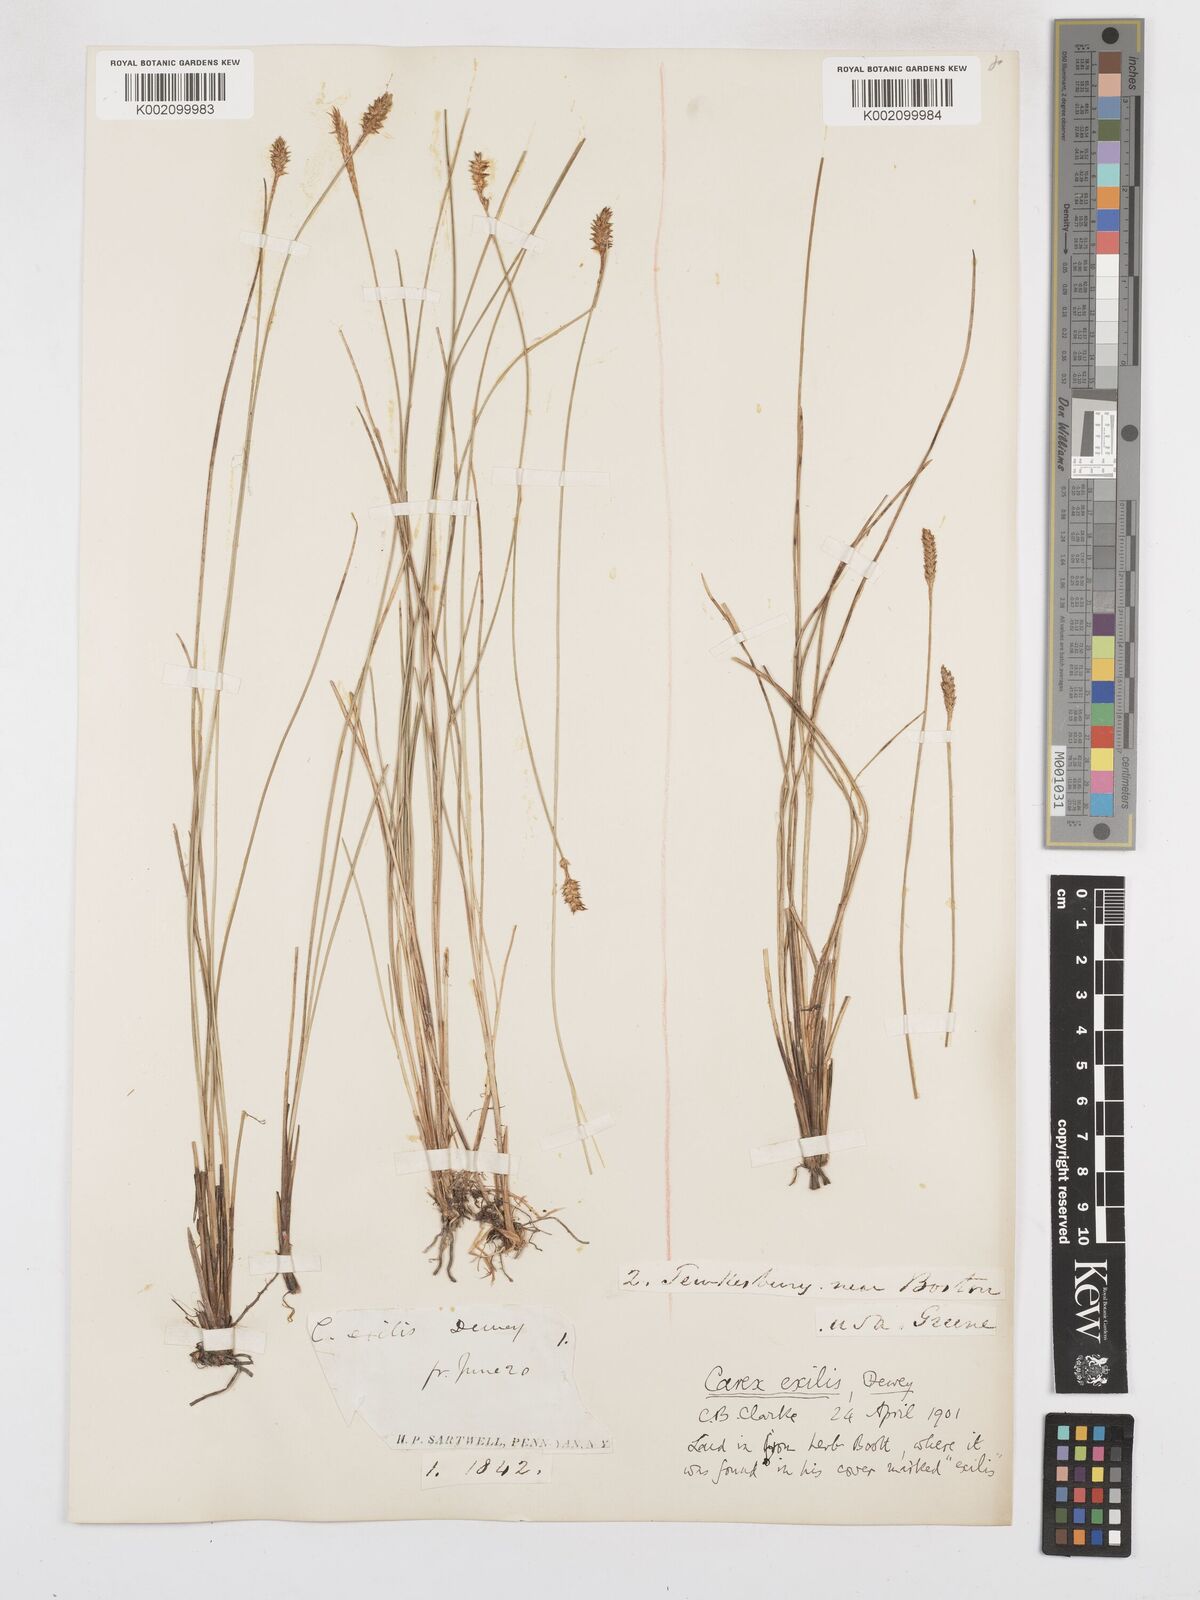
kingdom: Plantae
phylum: Tracheophyta
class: Liliopsida
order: Poales
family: Cyperaceae
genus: Carex
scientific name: Carex exilis
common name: Coastal sedge
